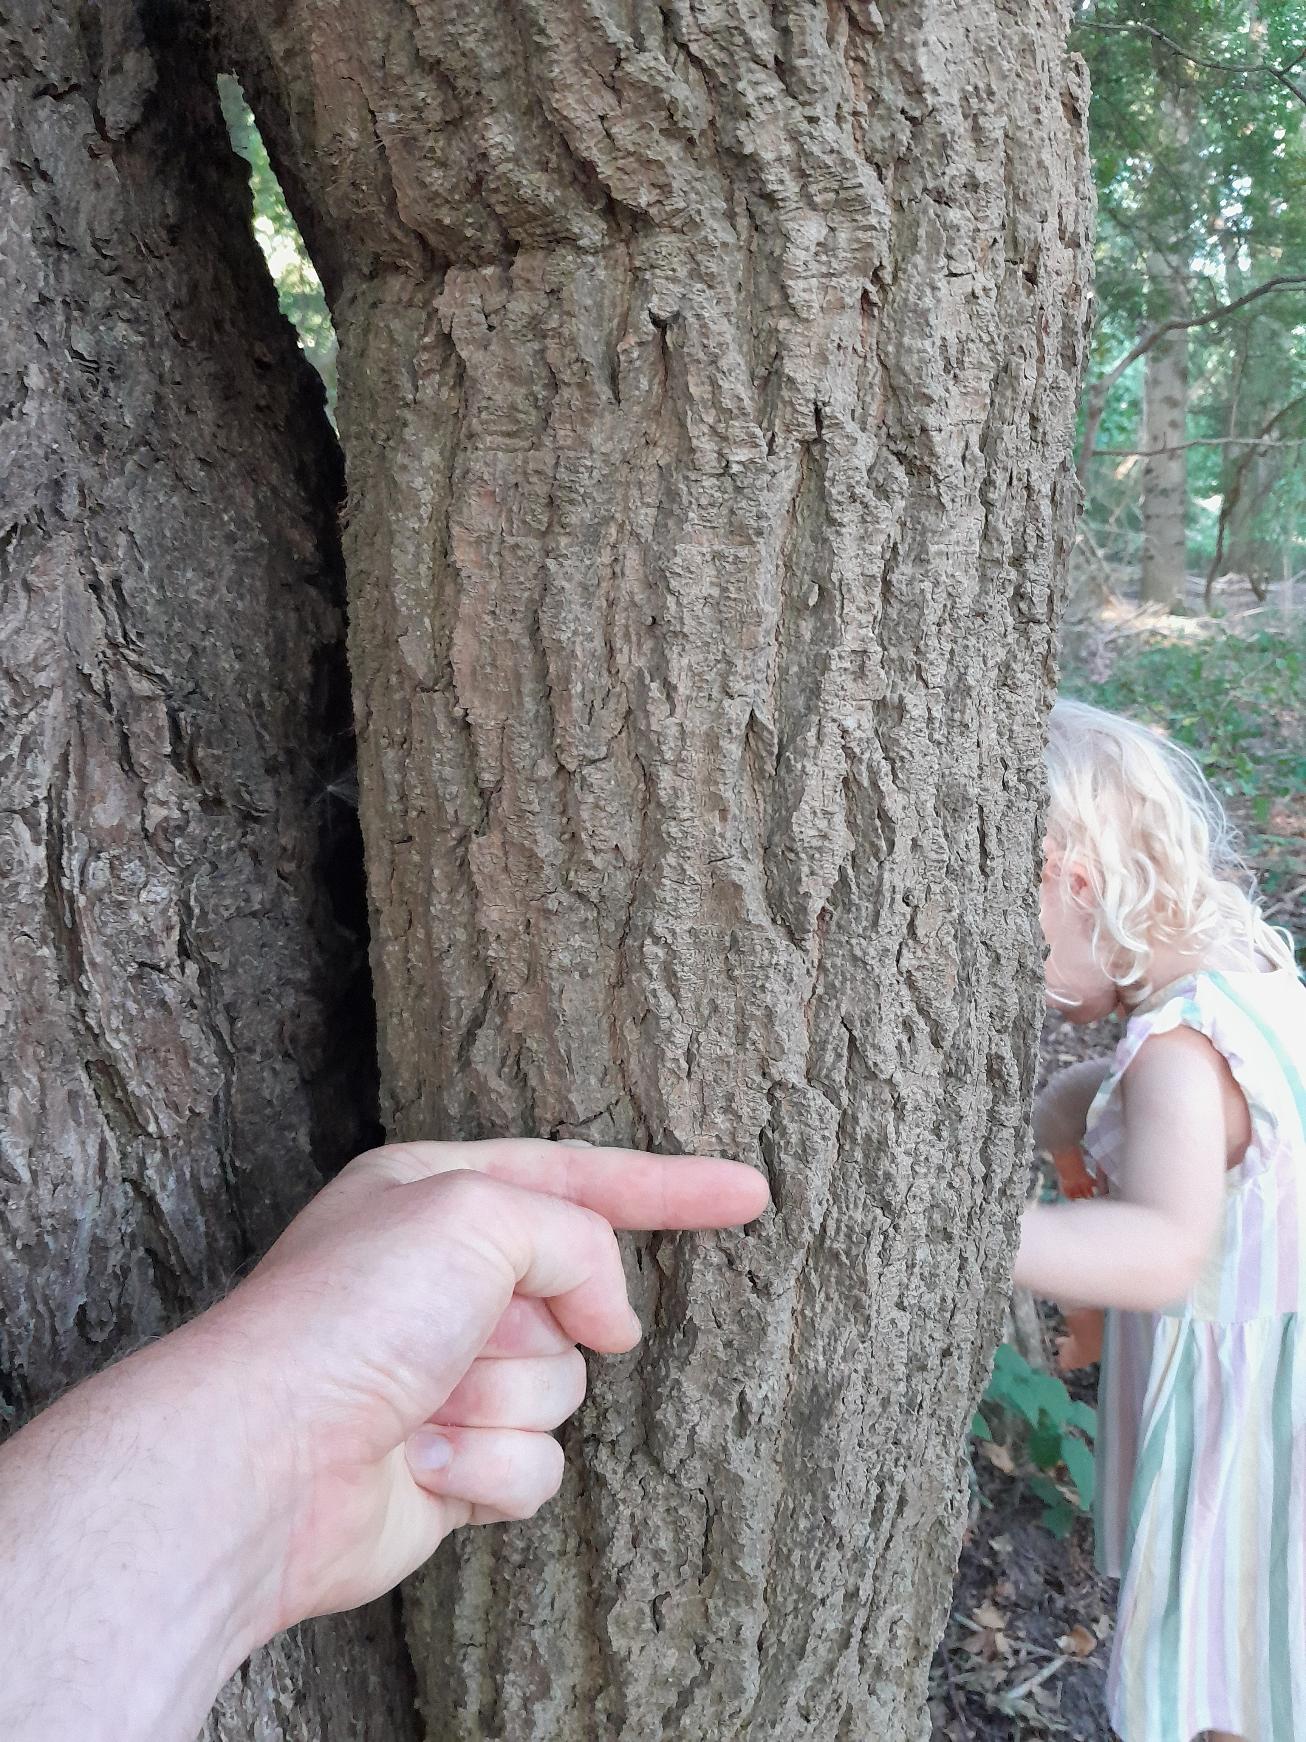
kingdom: Plantae
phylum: Tracheophyta
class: Magnoliopsida
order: Apiales
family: Araliaceae
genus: Hedera
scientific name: Hedera
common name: Vedbendslægten
